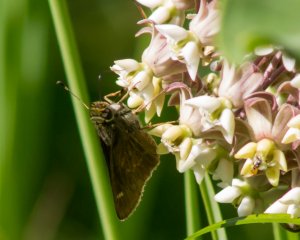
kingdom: Animalia
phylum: Arthropoda
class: Insecta
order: Lepidoptera
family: Hesperiidae
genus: Vernia
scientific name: Vernia verna
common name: Little Glassywing
